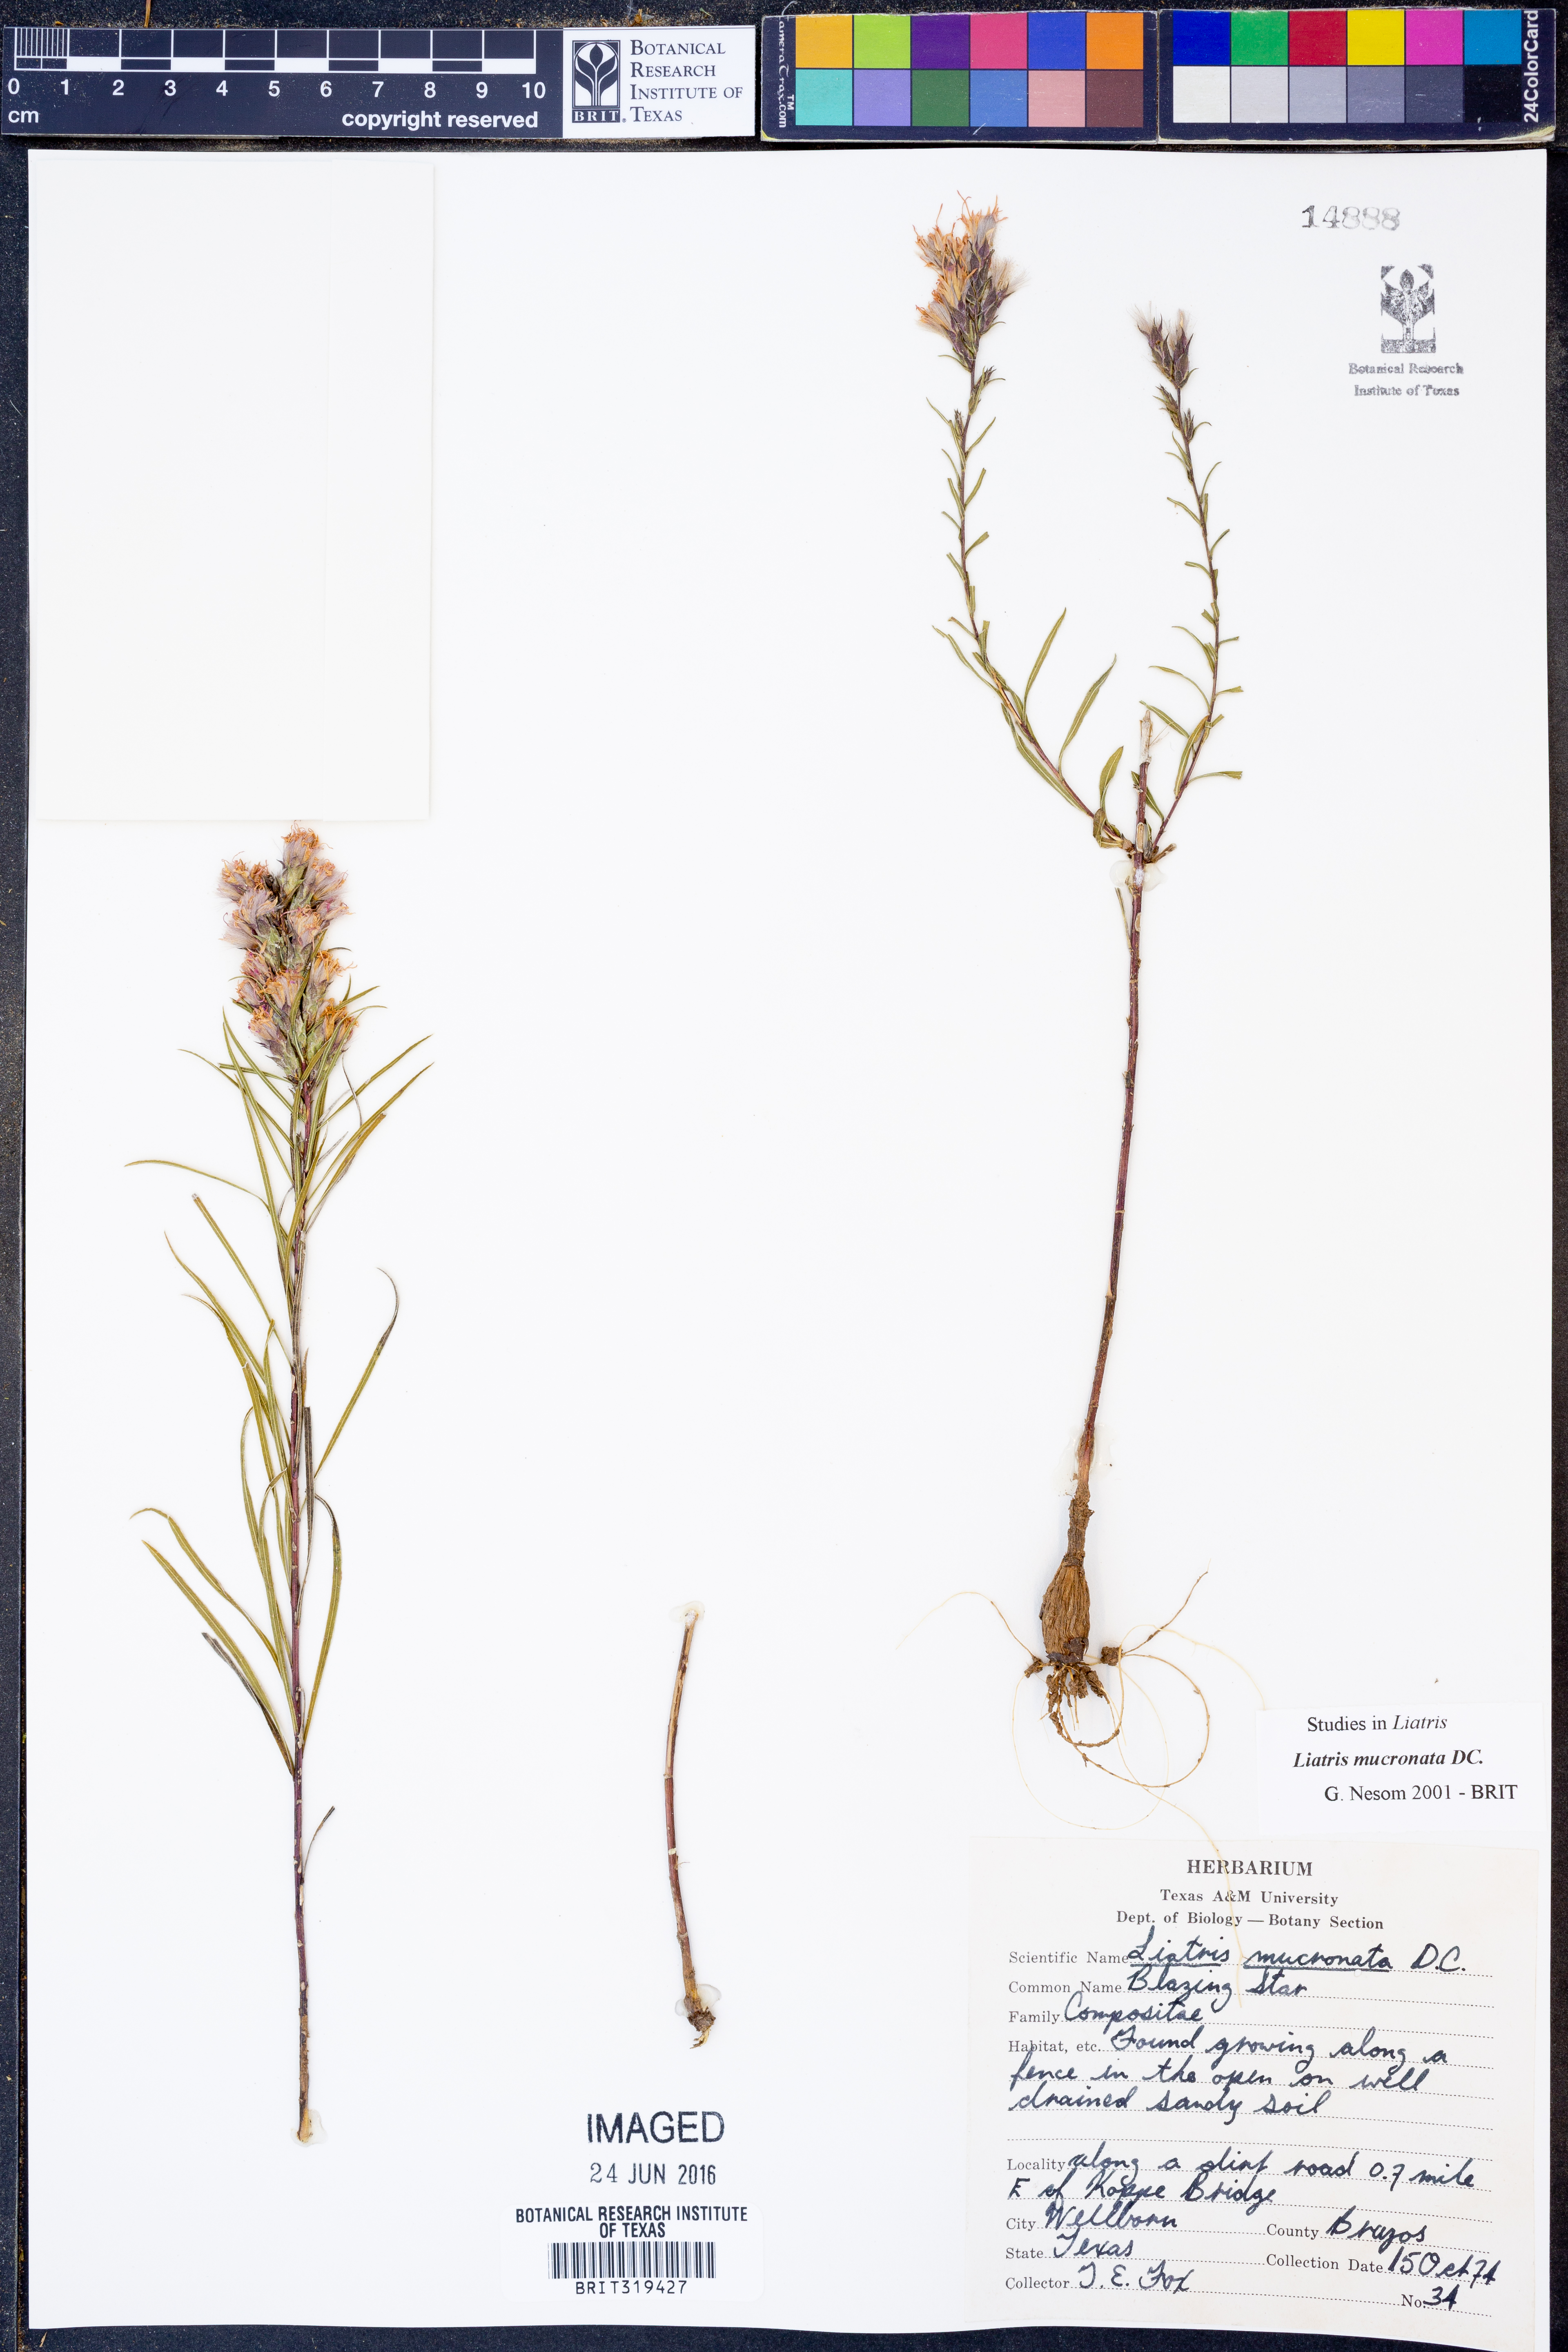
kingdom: Plantae
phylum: Tracheophyta
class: Magnoliopsida
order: Asterales
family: Asteraceae
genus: Liatris
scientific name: Liatris mucronata
